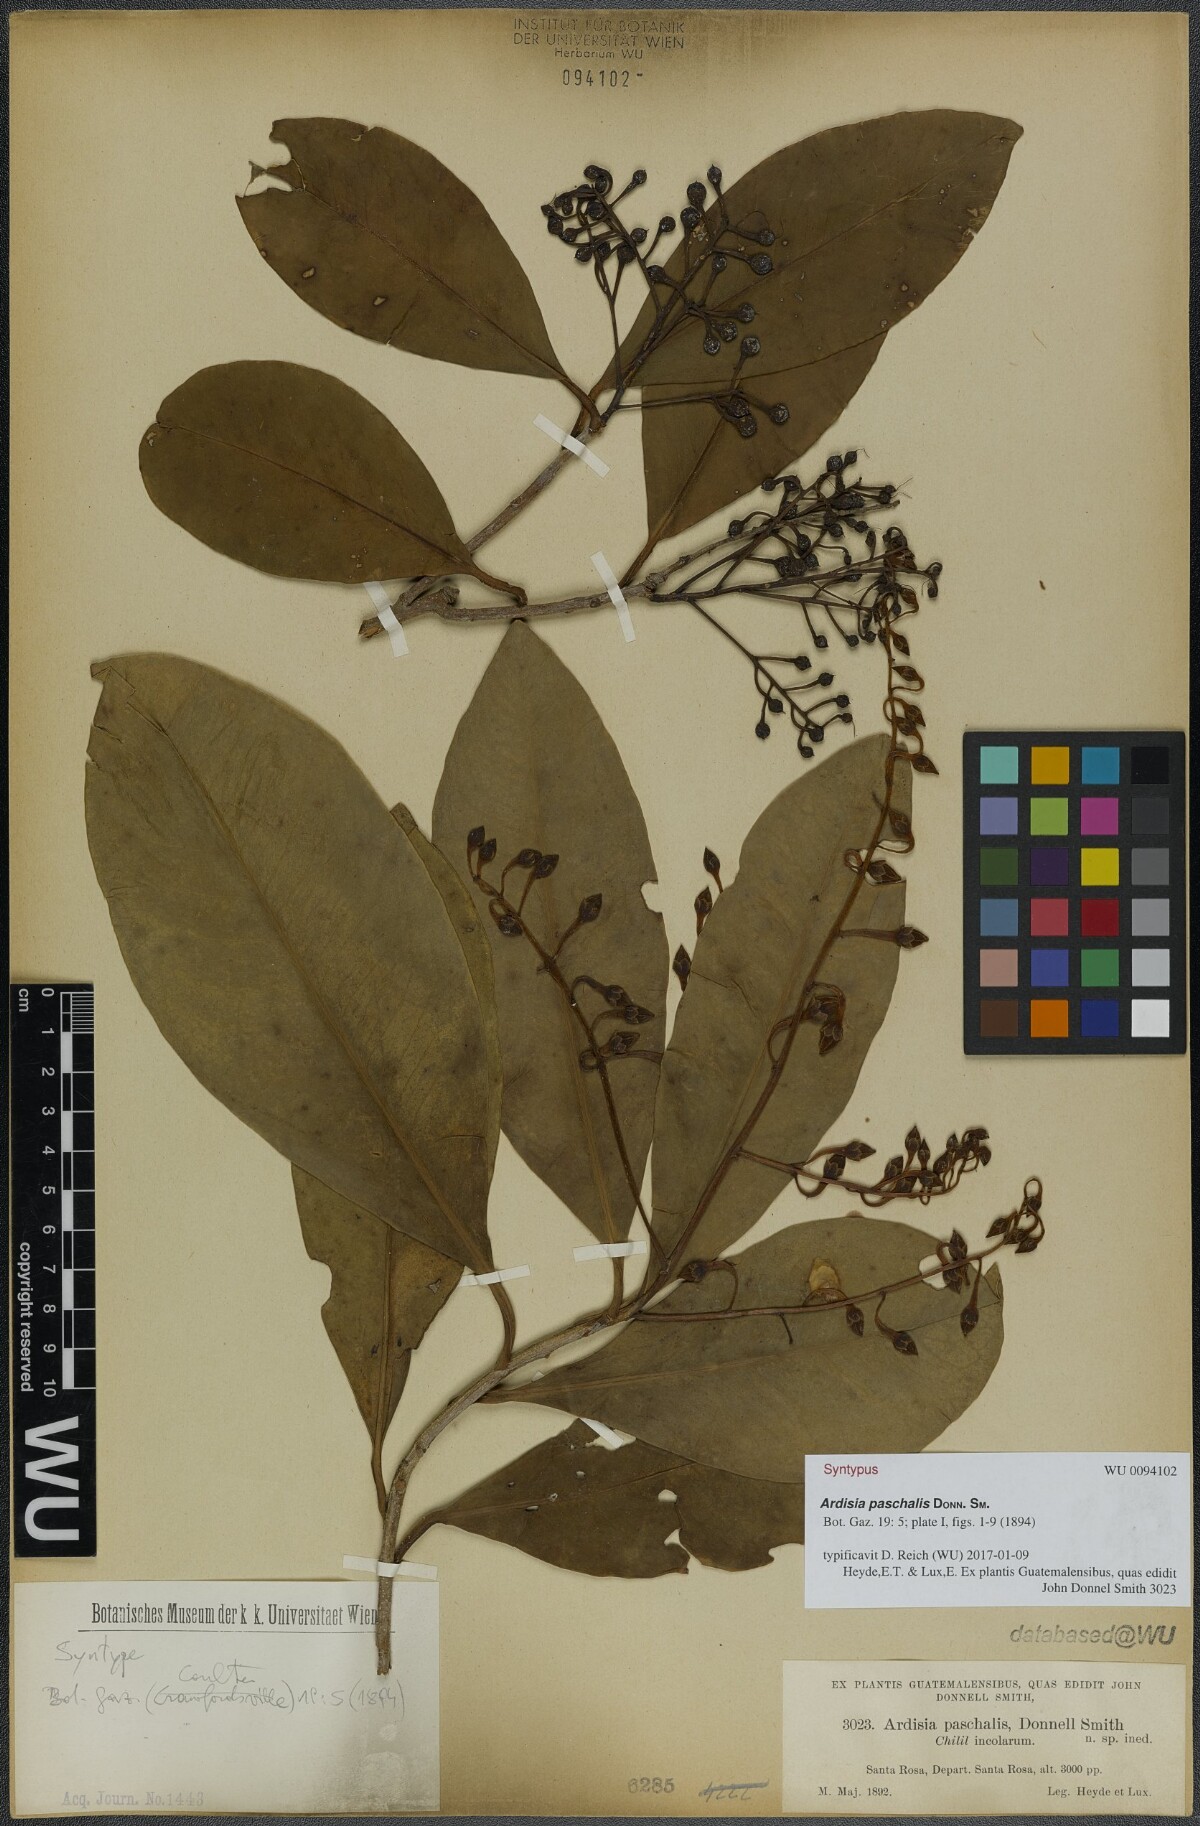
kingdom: Plantae
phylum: Tracheophyta
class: Magnoliopsida
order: Ericales
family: Primulaceae
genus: Ardisia
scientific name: Ardisia paschalis
